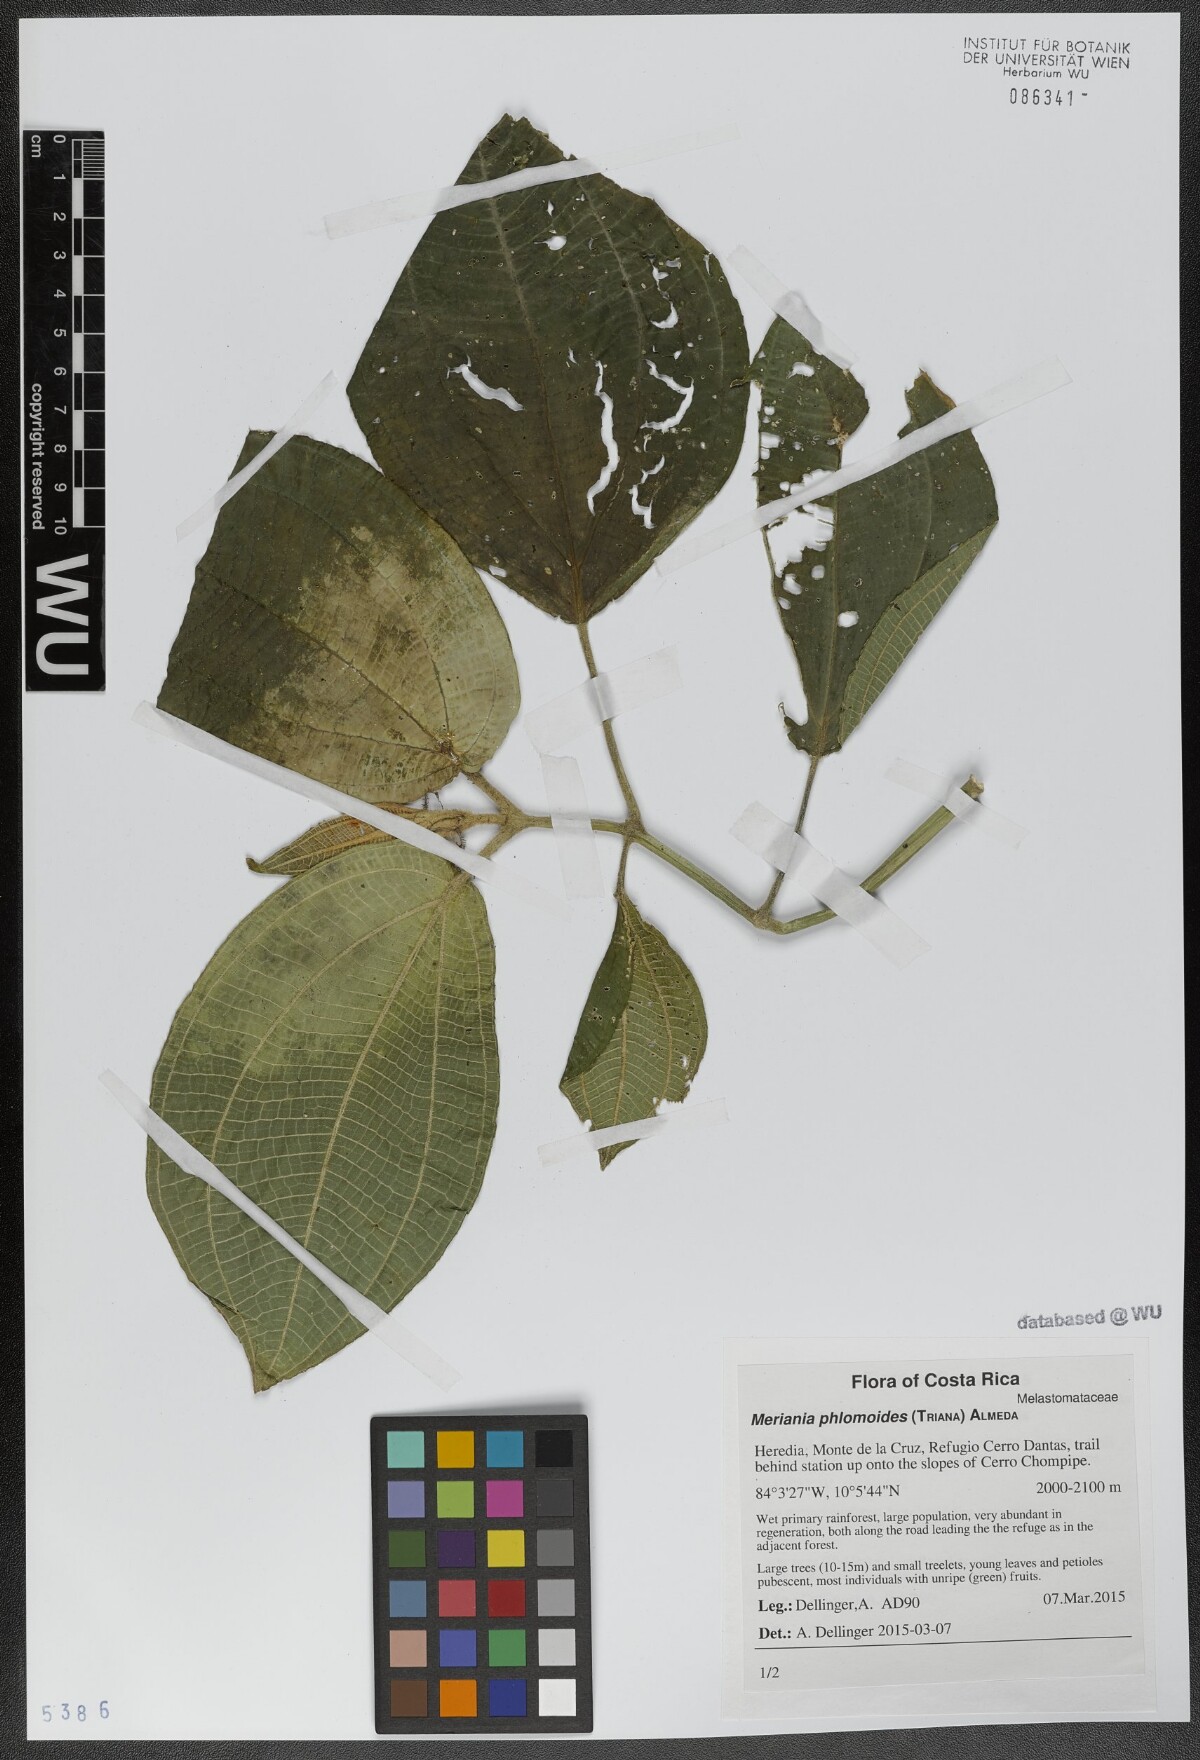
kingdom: Plantae
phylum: Tracheophyta
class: Magnoliopsida
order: Myrtales
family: Melastomataceae
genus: Meriania
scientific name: Meriania phlomoides
